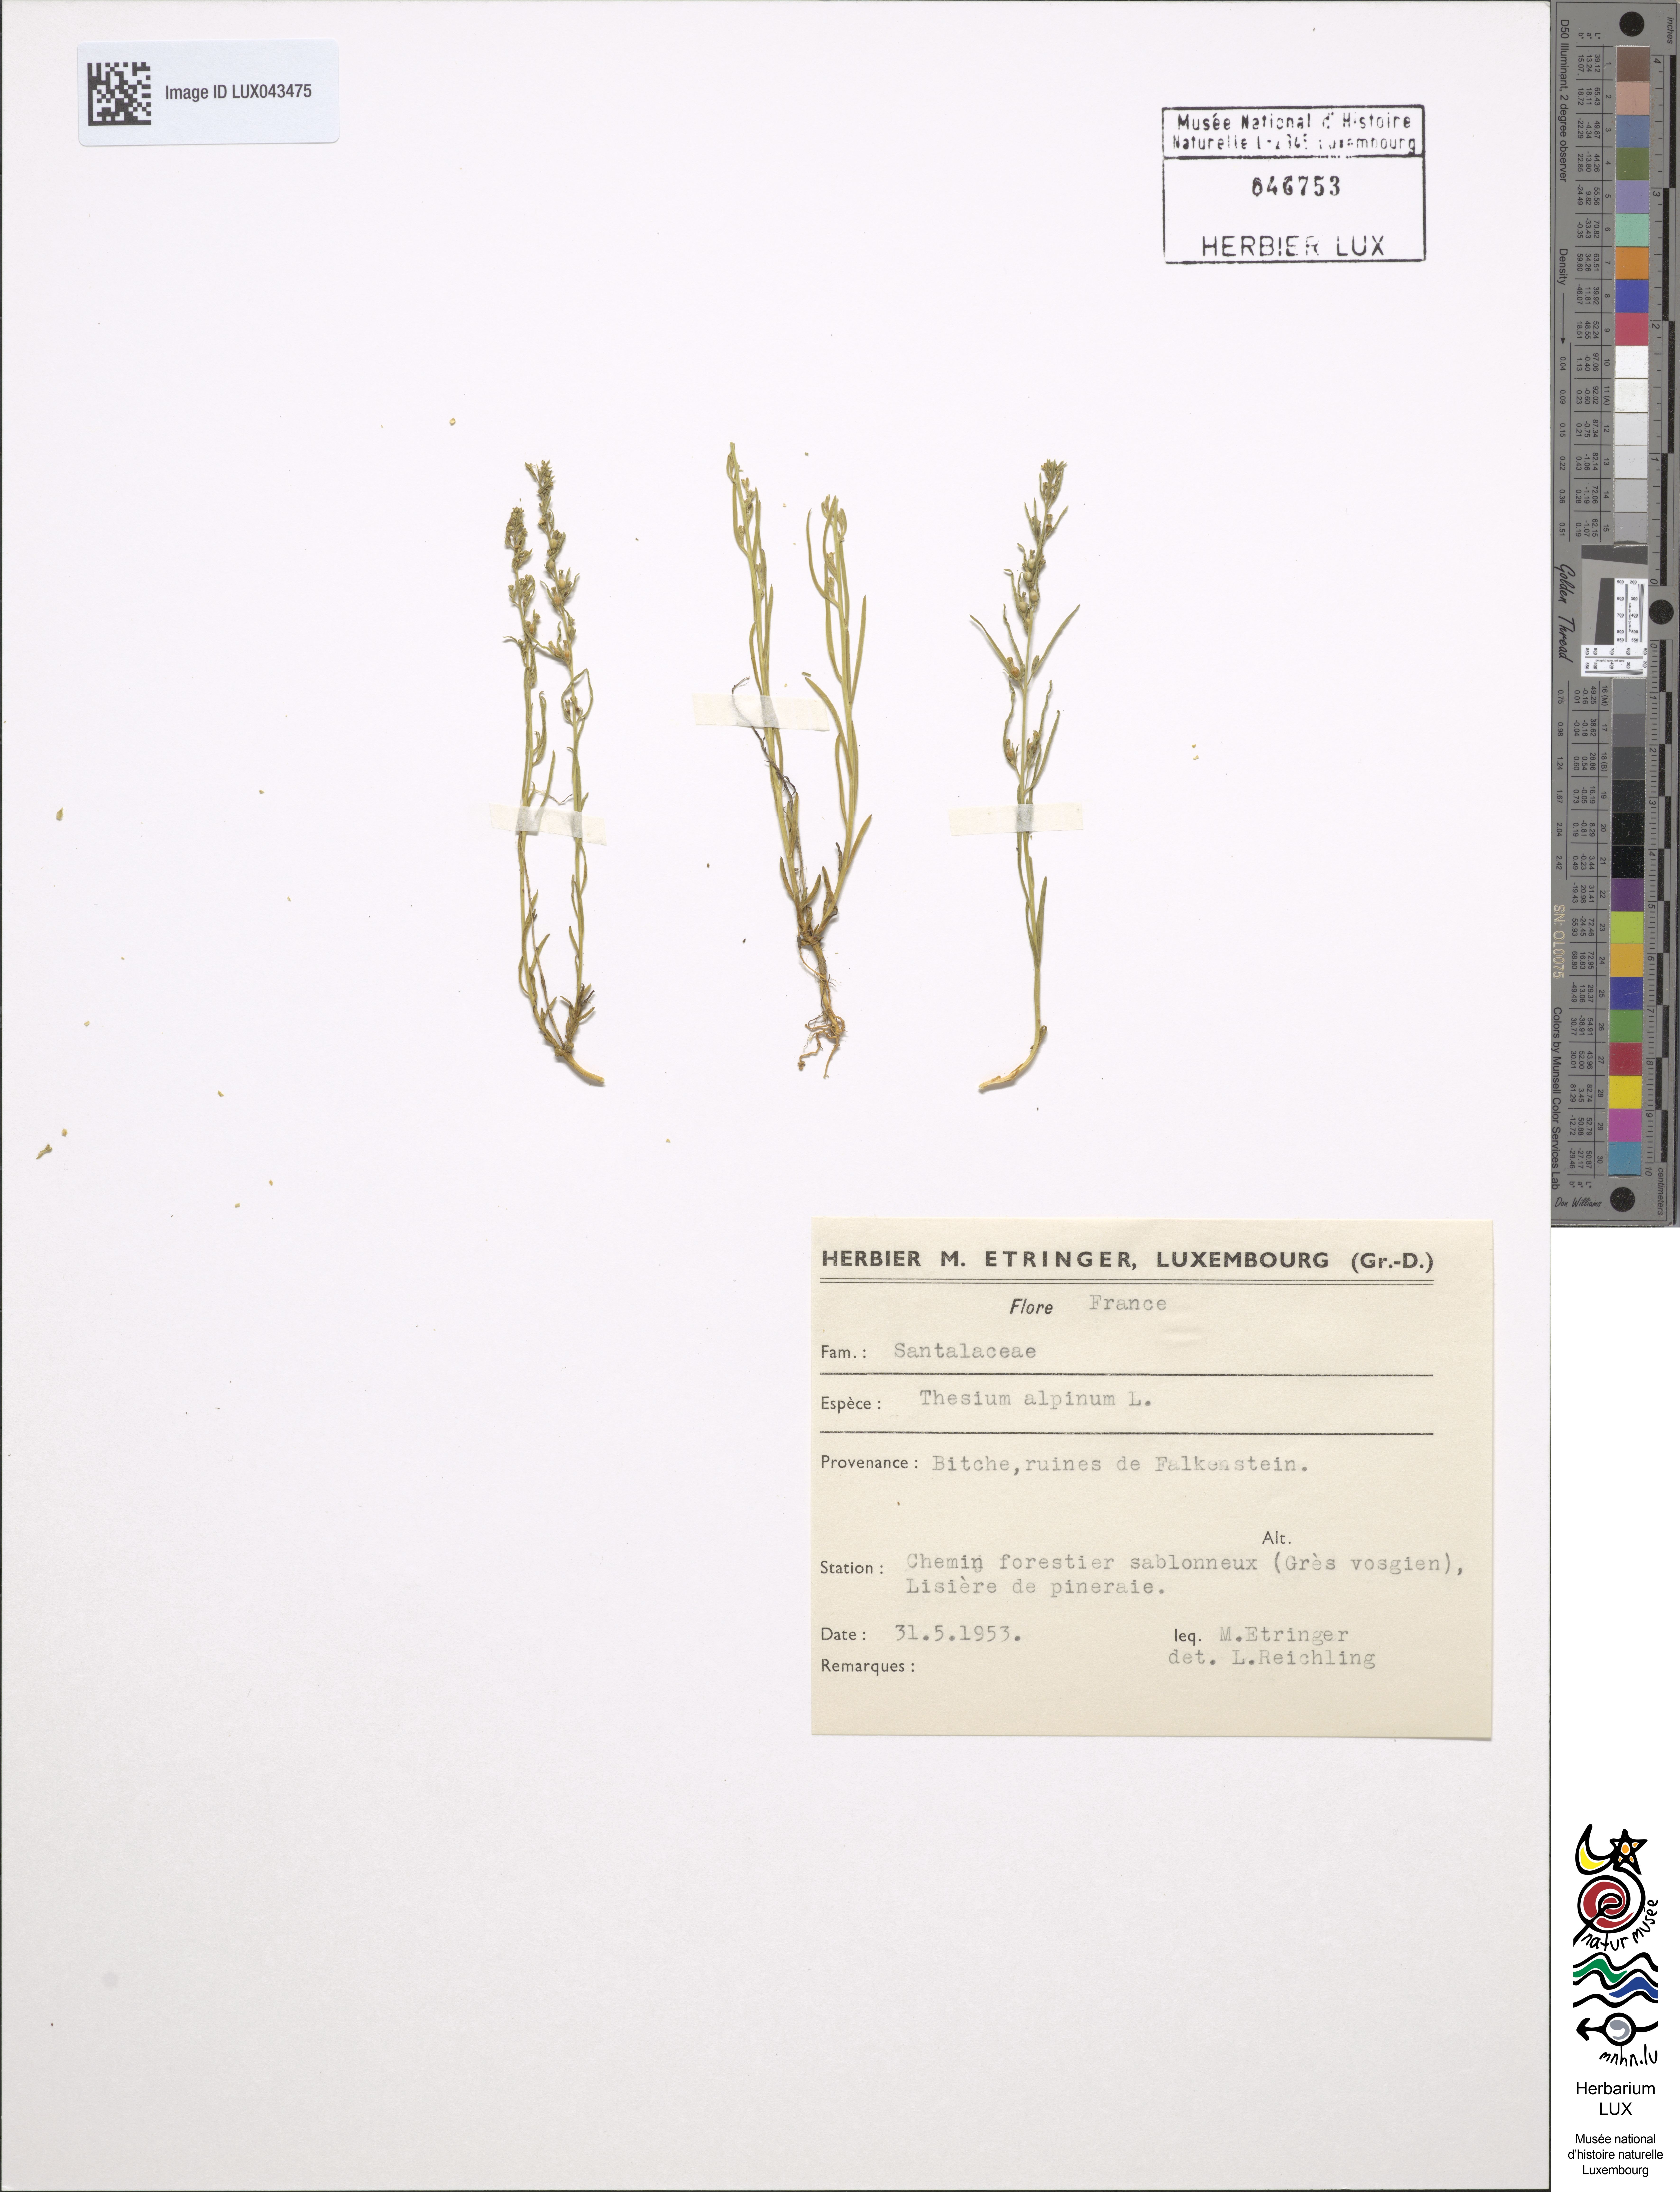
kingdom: Plantae
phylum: Tracheophyta
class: Magnoliopsida
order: Santalales
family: Thesiaceae
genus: Thesium
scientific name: Thesium alpinum
